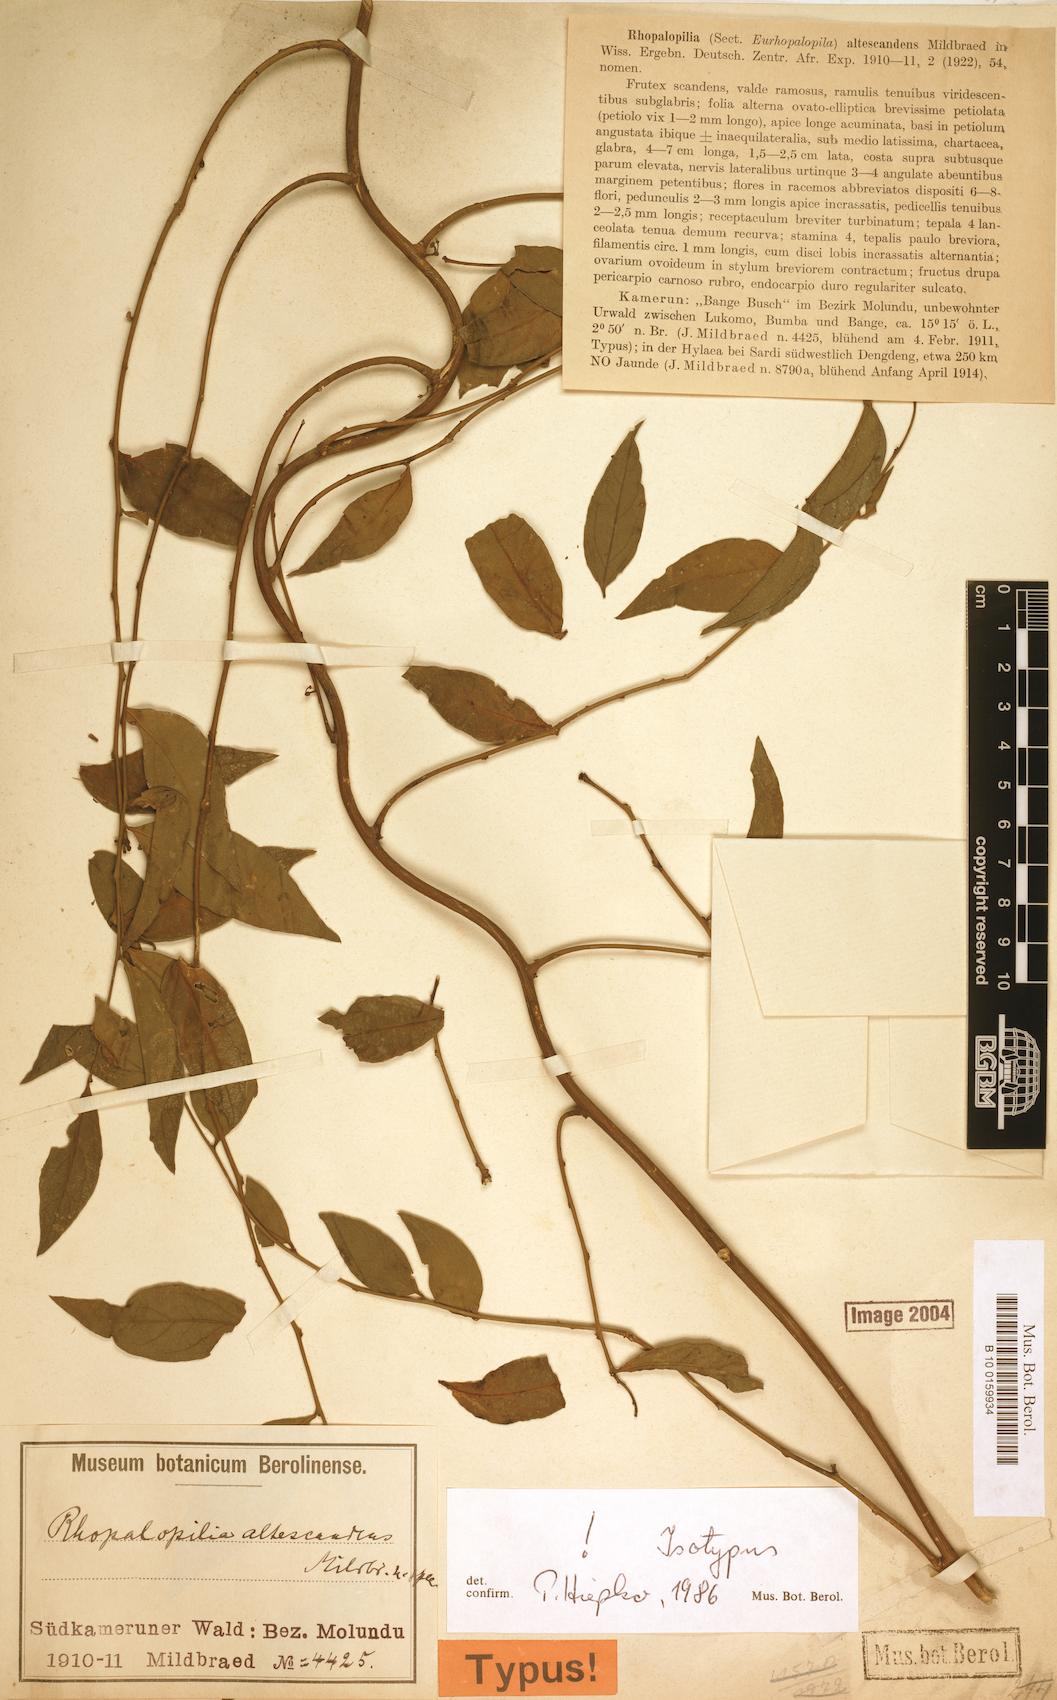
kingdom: Plantae
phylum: Tracheophyta
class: Magnoliopsida
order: Santalales
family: Opiliaceae
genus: Rhopalopilia
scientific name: Rhopalopilia altescandens
